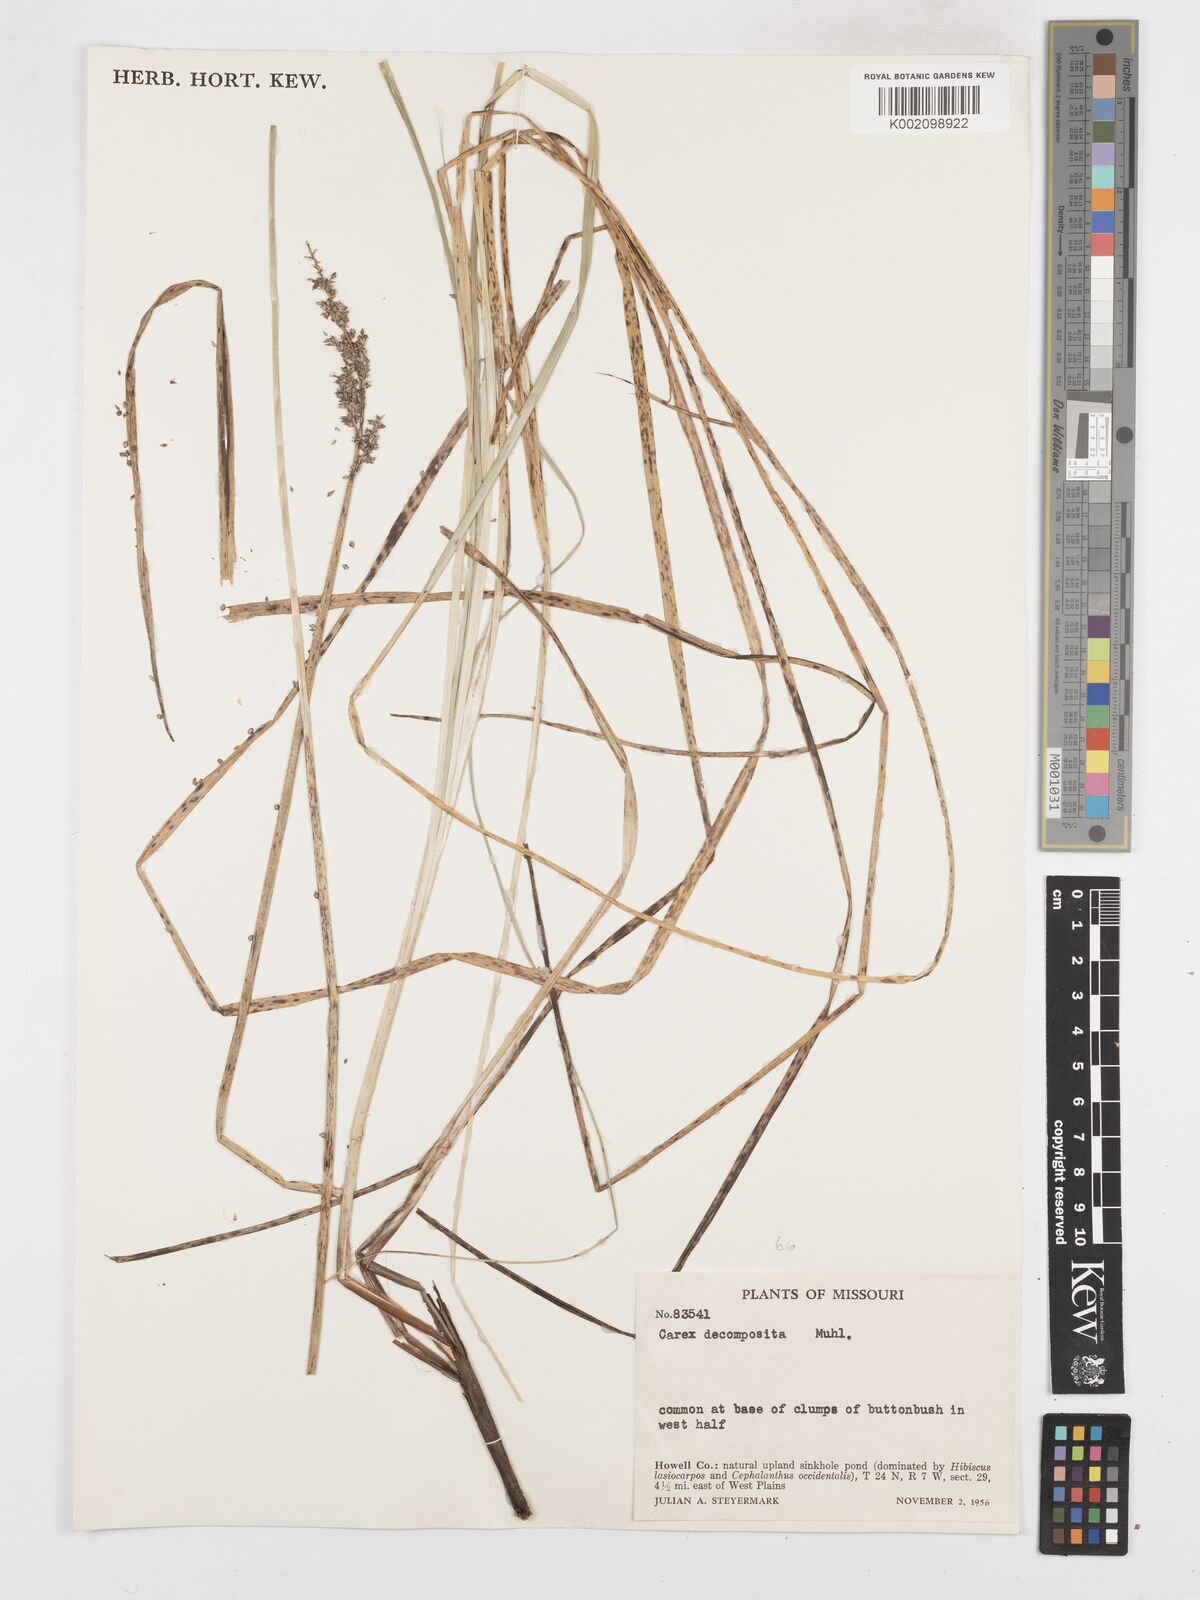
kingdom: Plantae
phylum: Tracheophyta
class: Liliopsida
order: Poales
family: Cyperaceae
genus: Carex
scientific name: Carex decomposita
